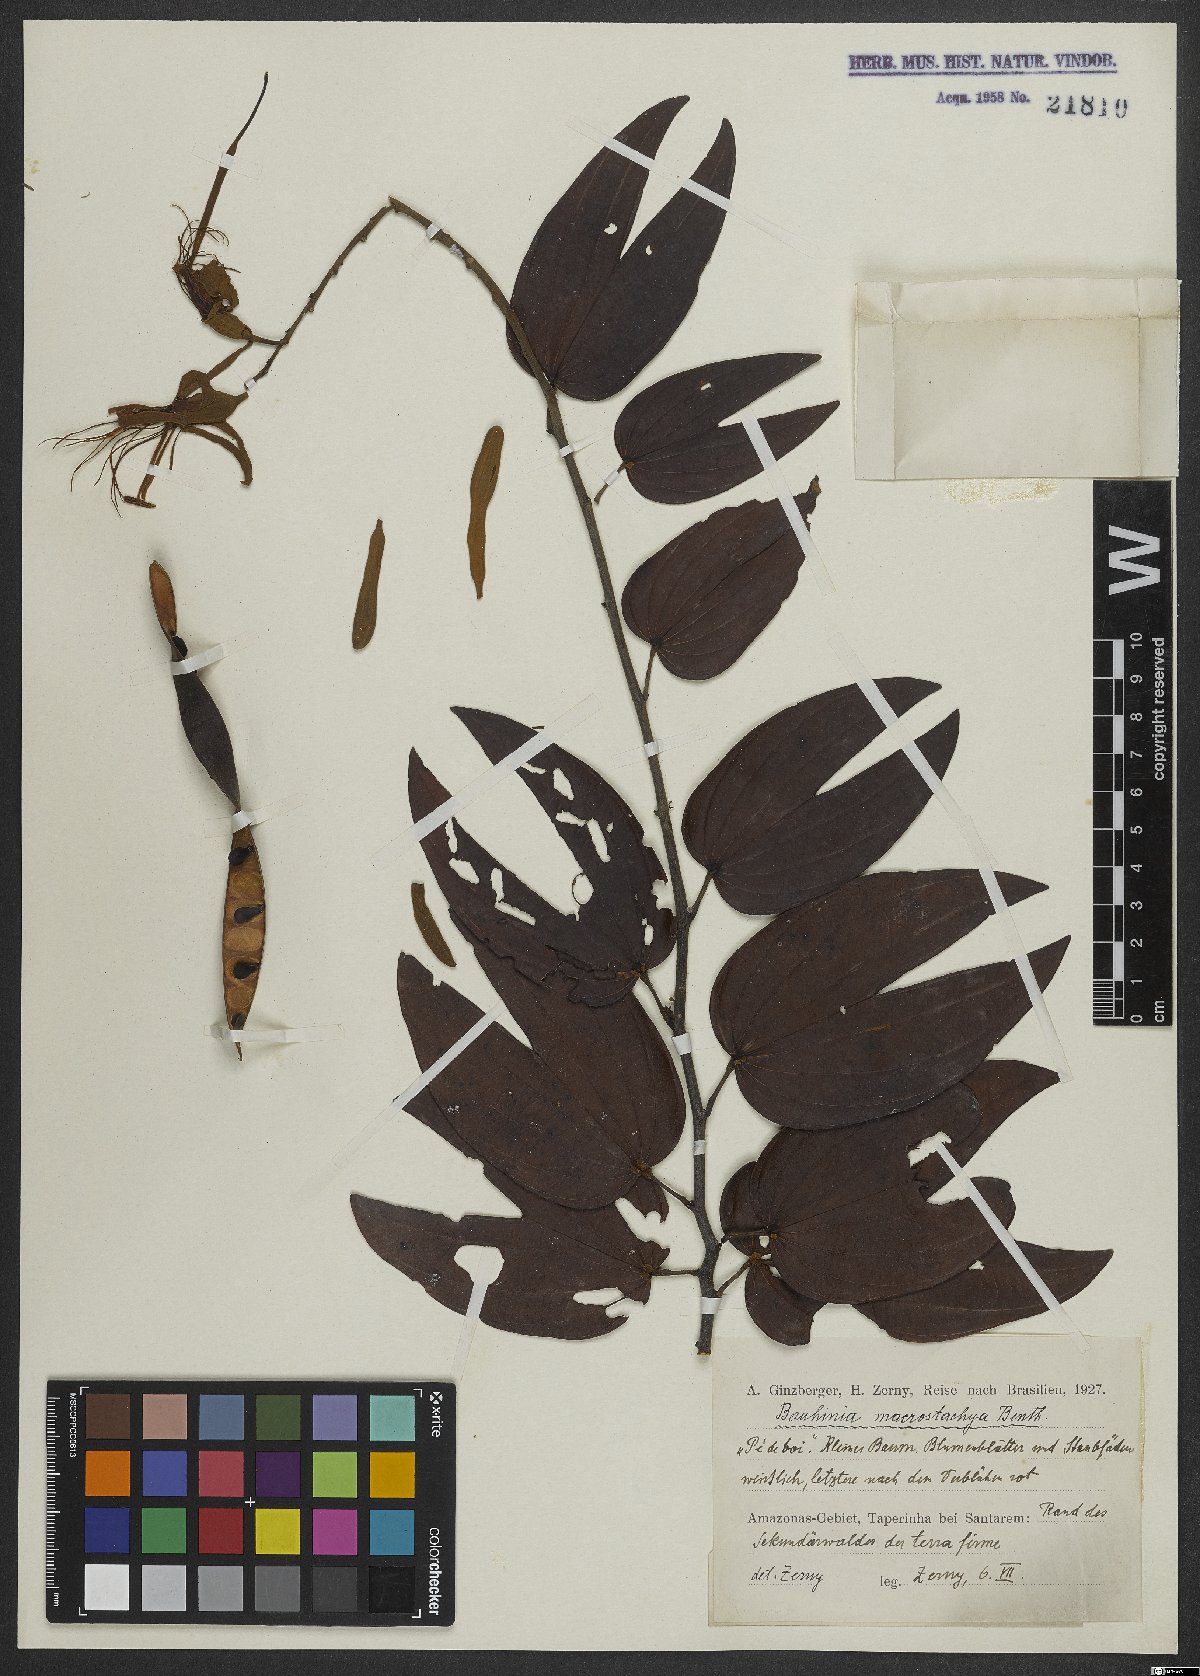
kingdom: Plantae
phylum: Tracheophyta
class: Magnoliopsida
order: Fabales
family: Fabaceae
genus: Bauhinia
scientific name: Bauhinia ungulata
